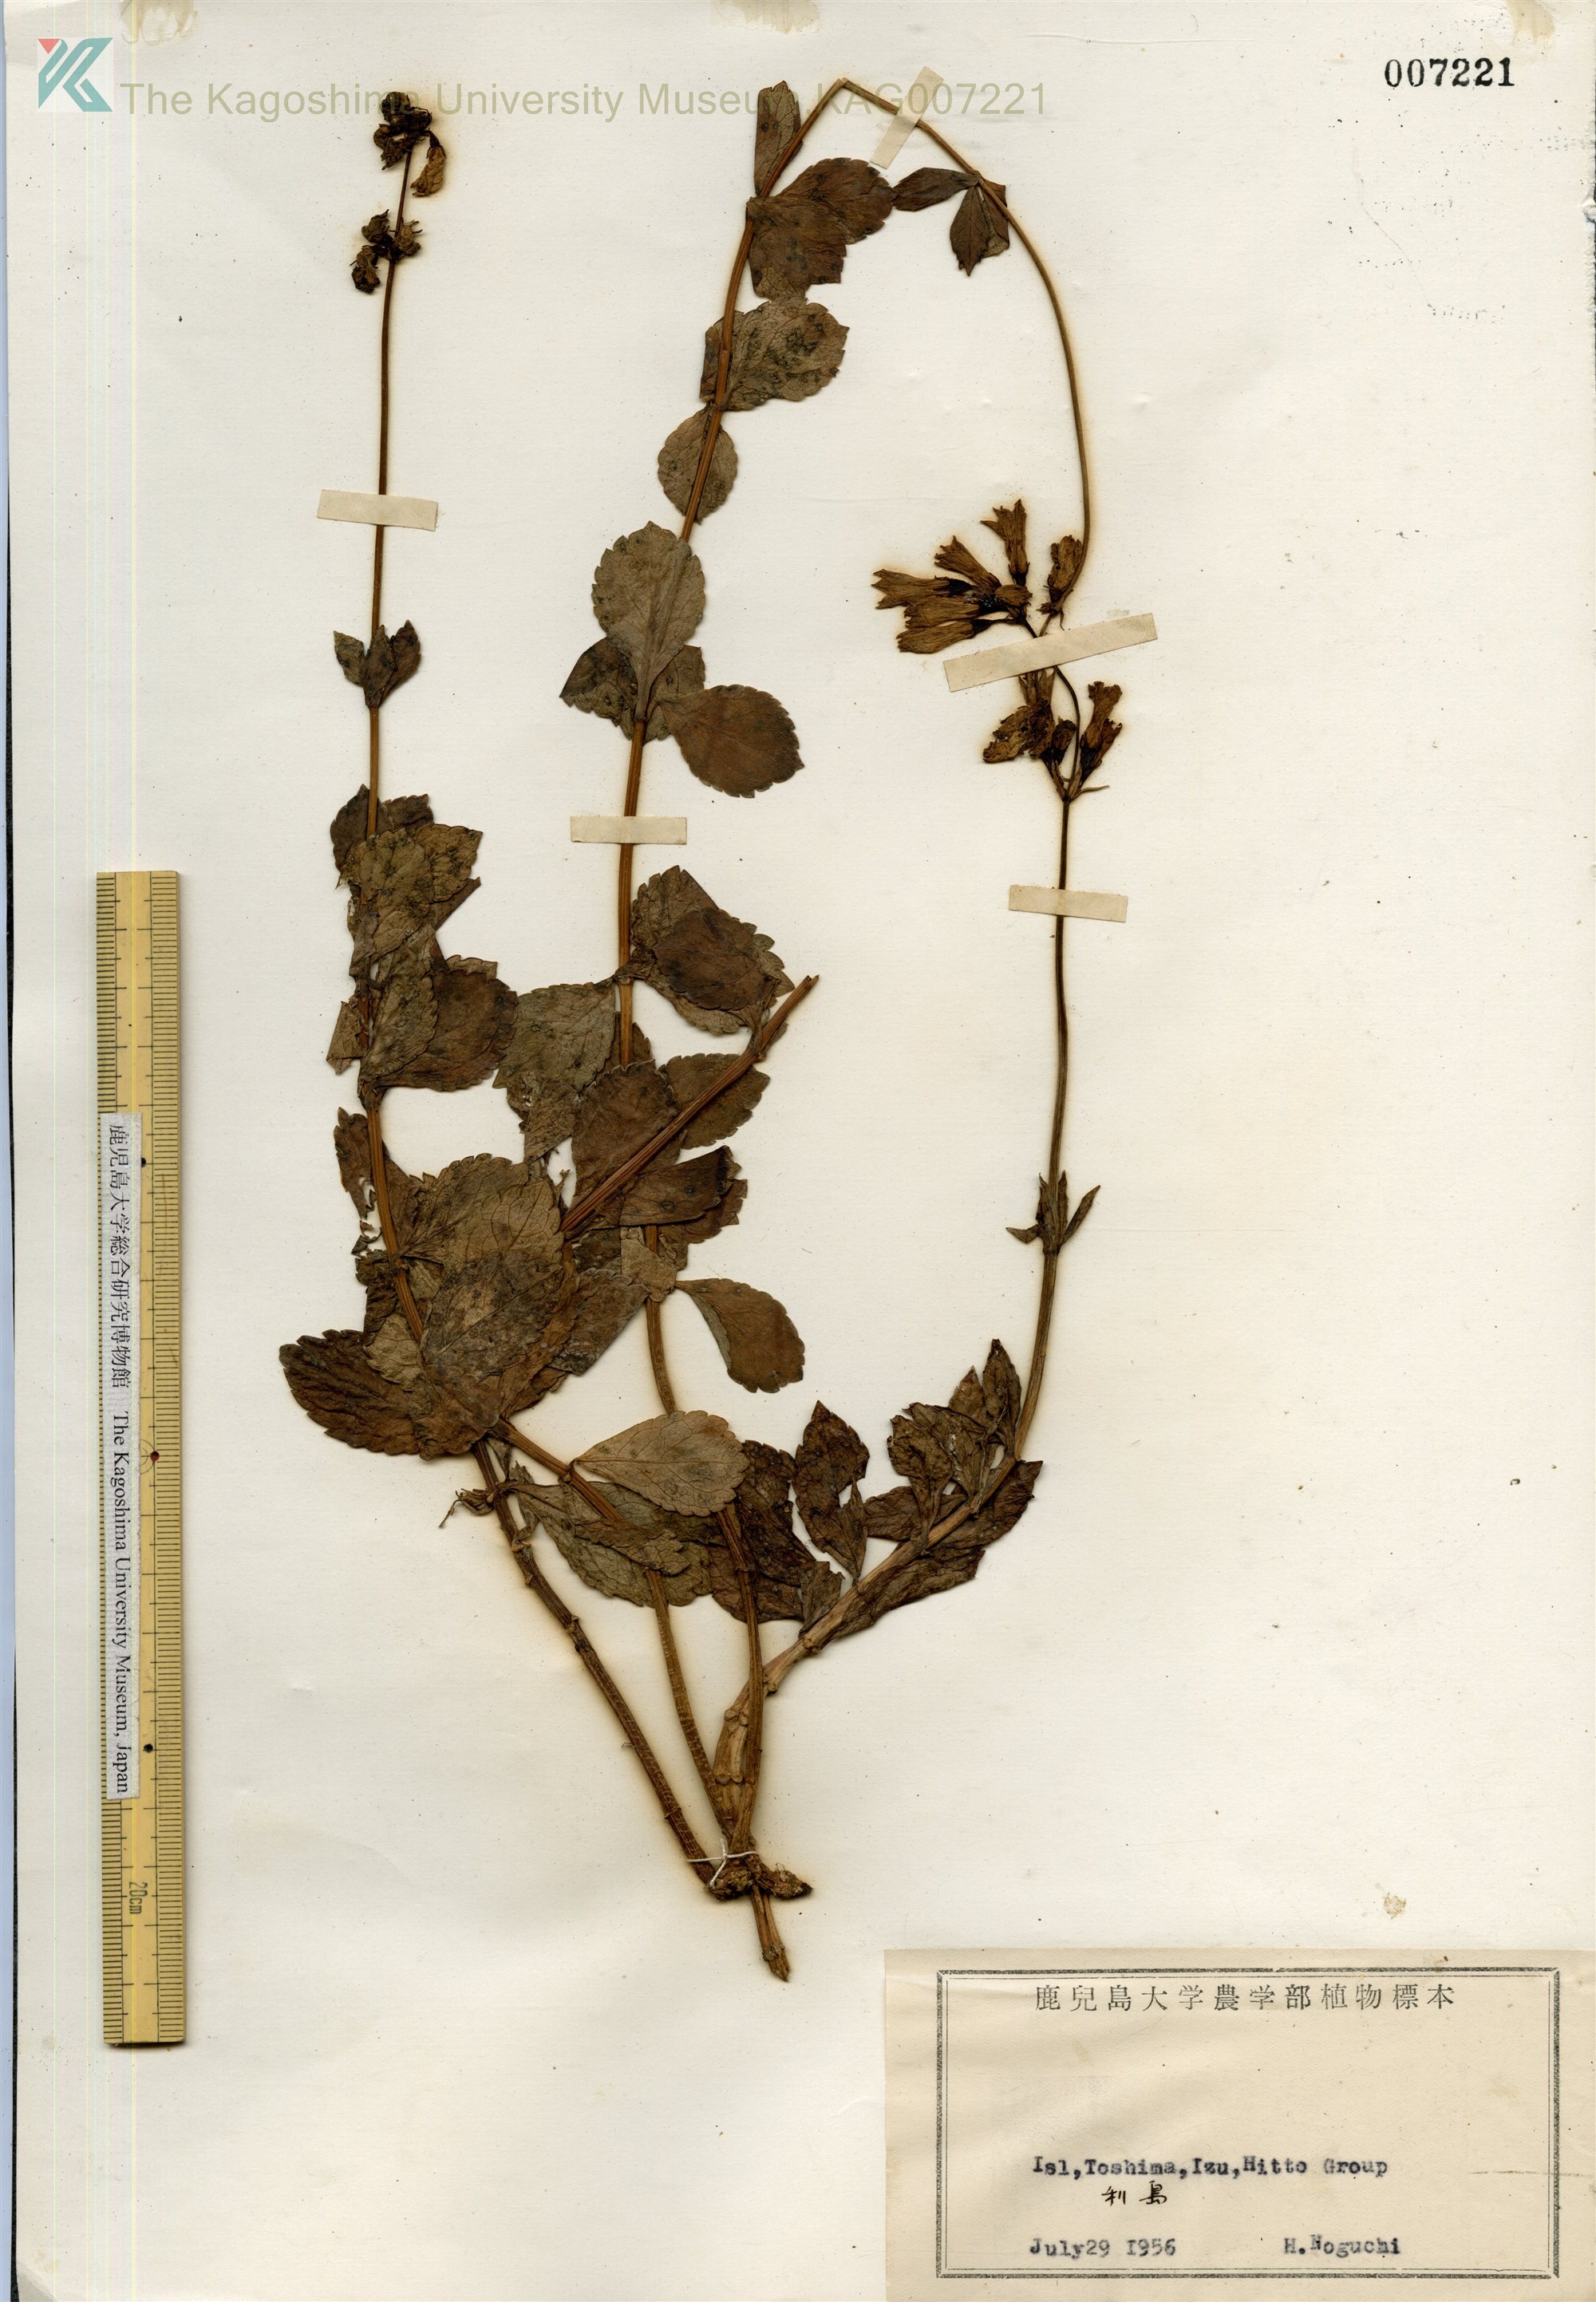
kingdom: Plantae
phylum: Tracheophyta
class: Magnoliopsida
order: Asterales
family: Campanulaceae
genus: Adenophora
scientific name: Adenophora triphylla
